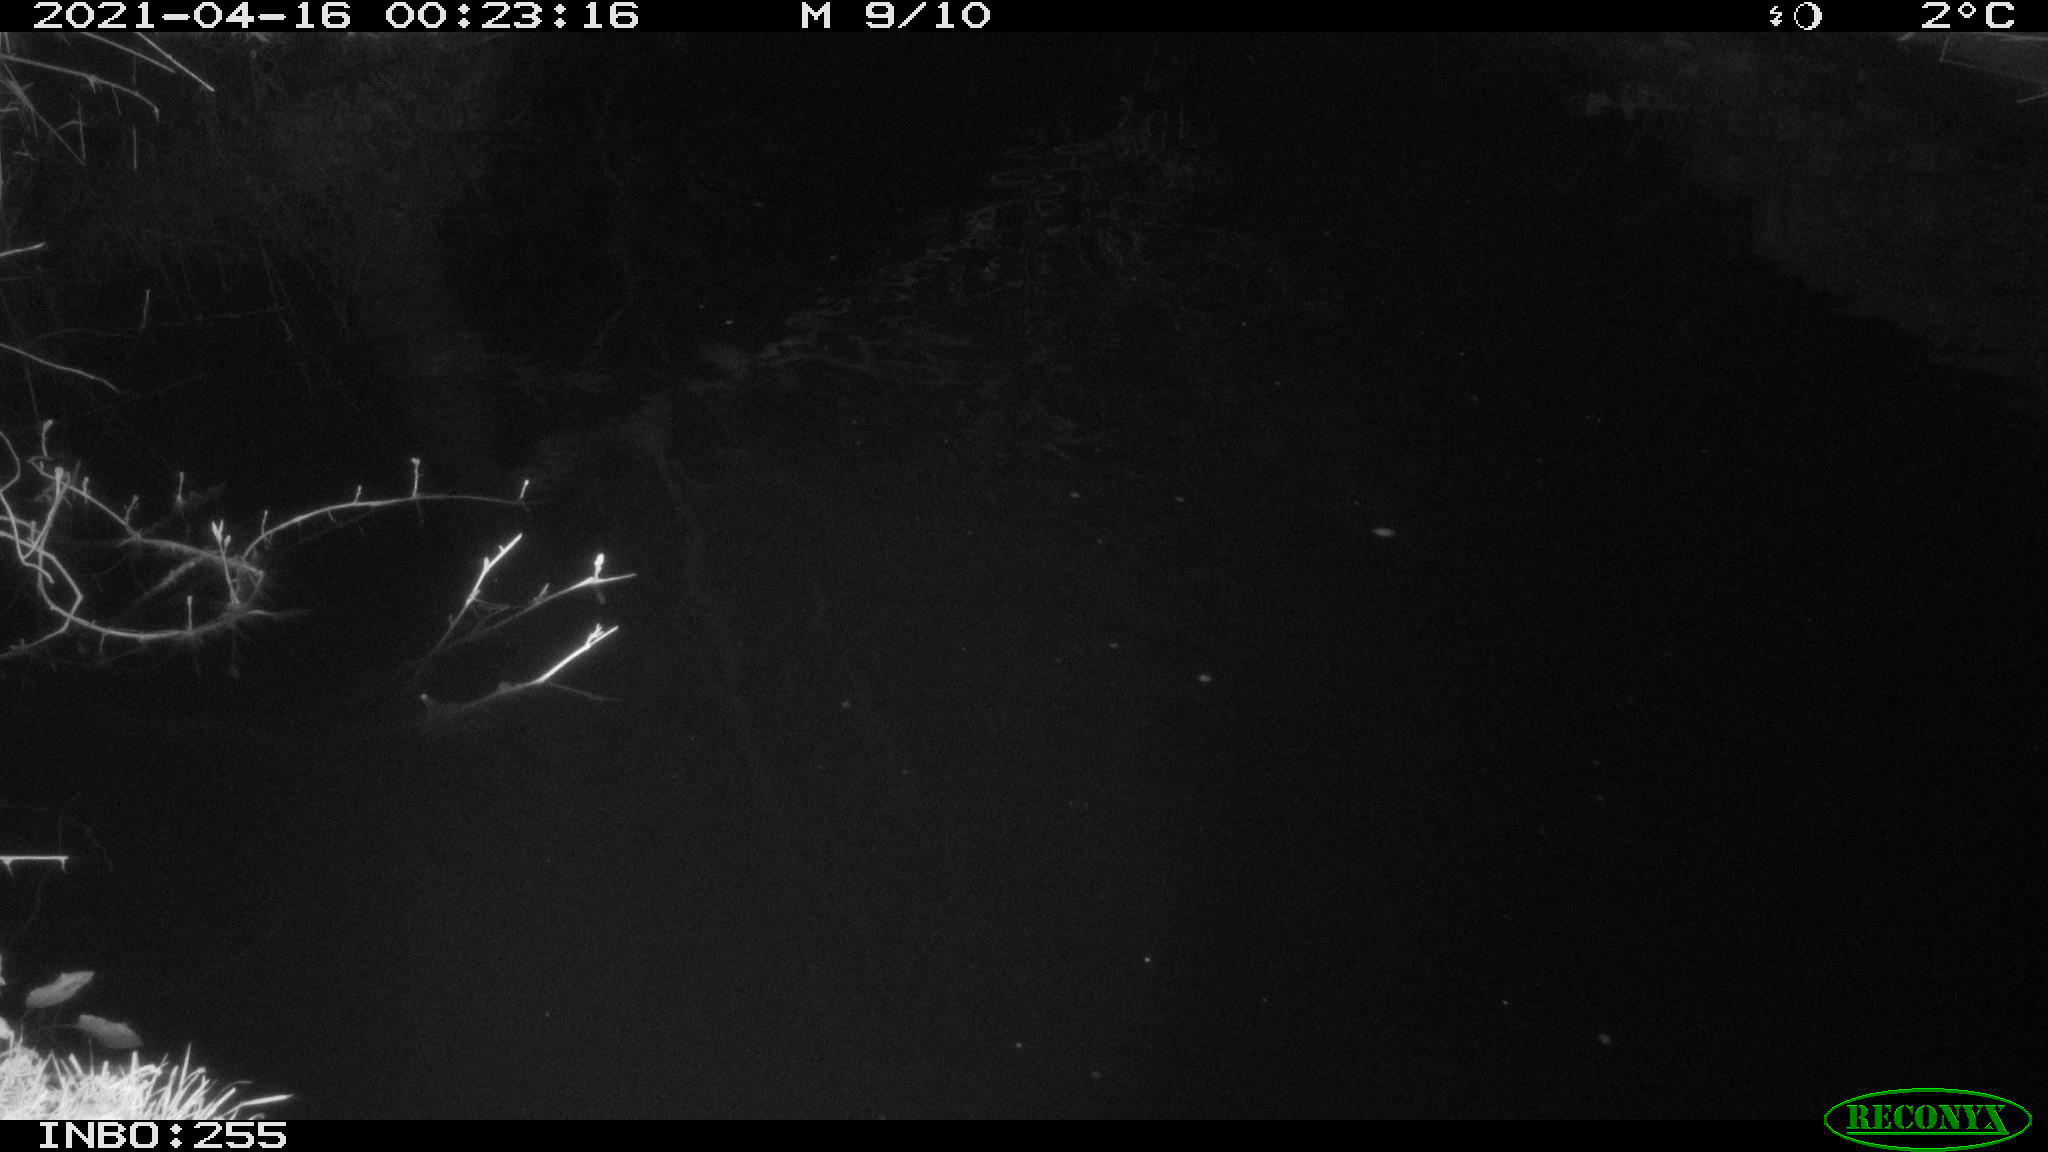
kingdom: Animalia
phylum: Chordata
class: Aves
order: Anseriformes
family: Anatidae
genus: Anas
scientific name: Anas platyrhynchos
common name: Mallard
